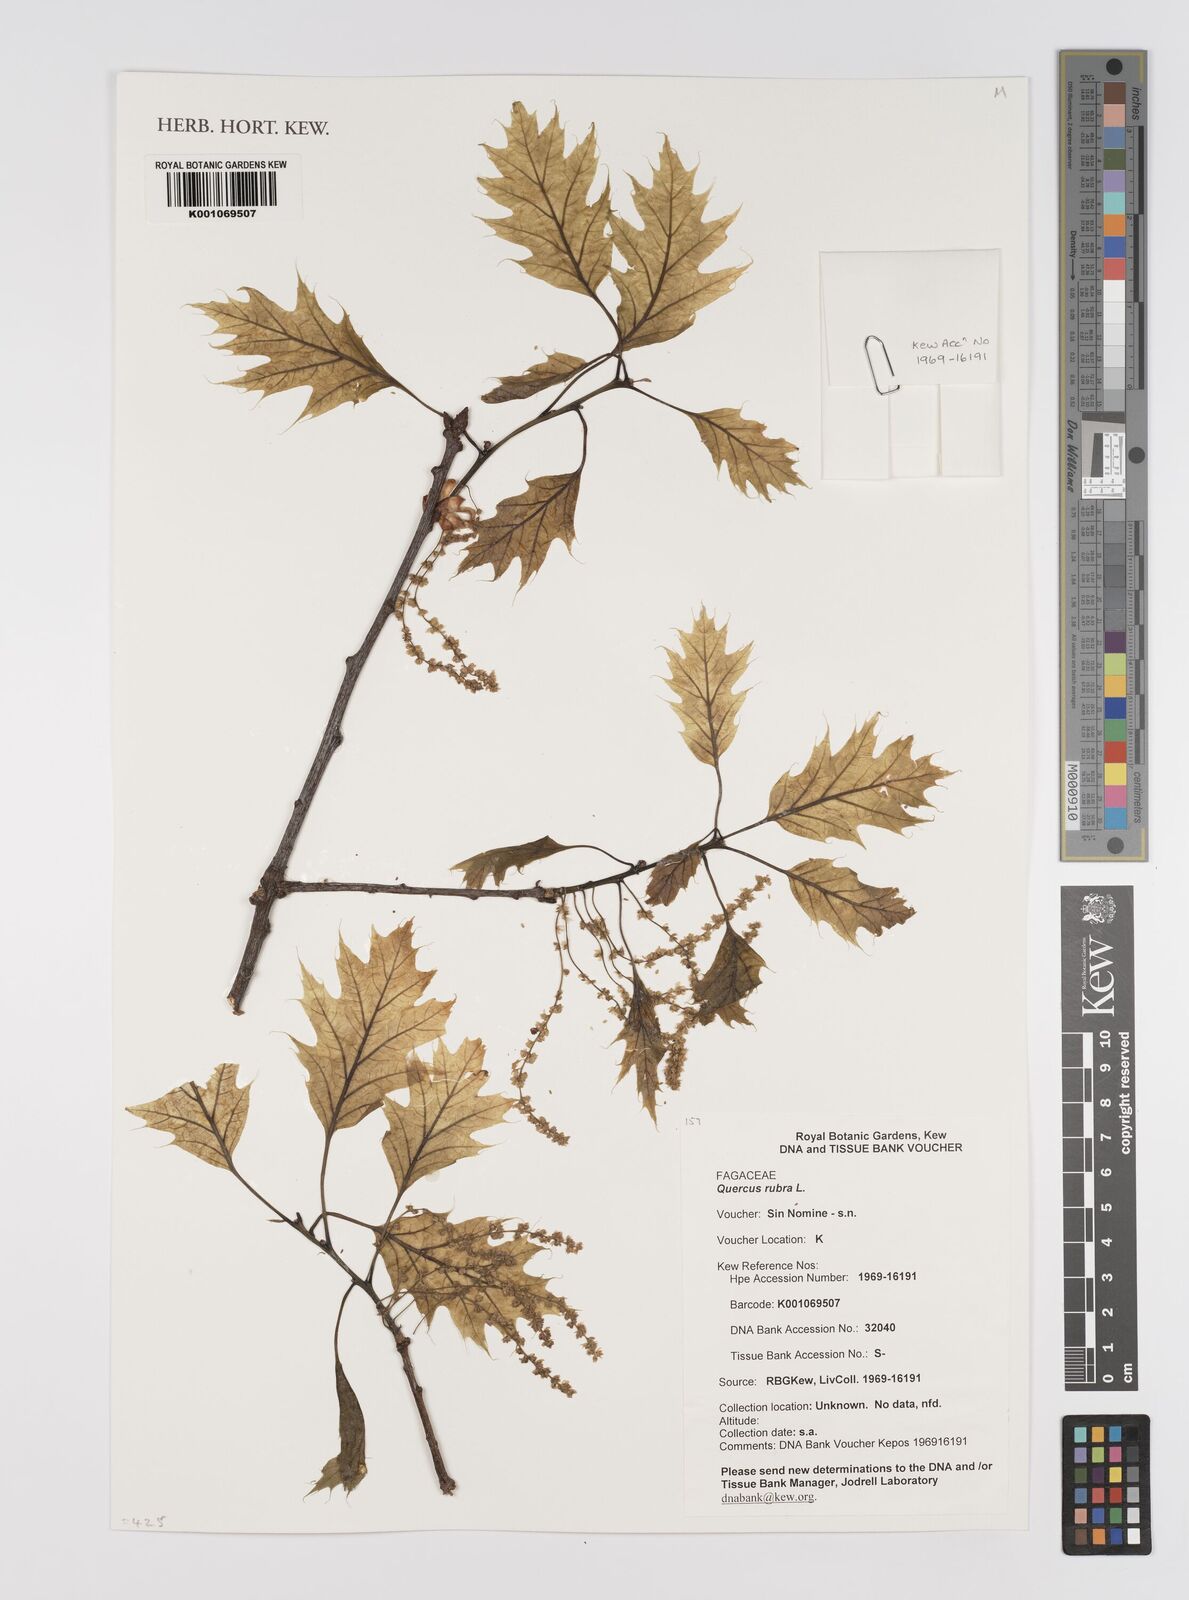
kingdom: Plantae
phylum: Tracheophyta
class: Magnoliopsida
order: Fagales
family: Fagaceae
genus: Quercus
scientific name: Quercus rubra
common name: Red oak
